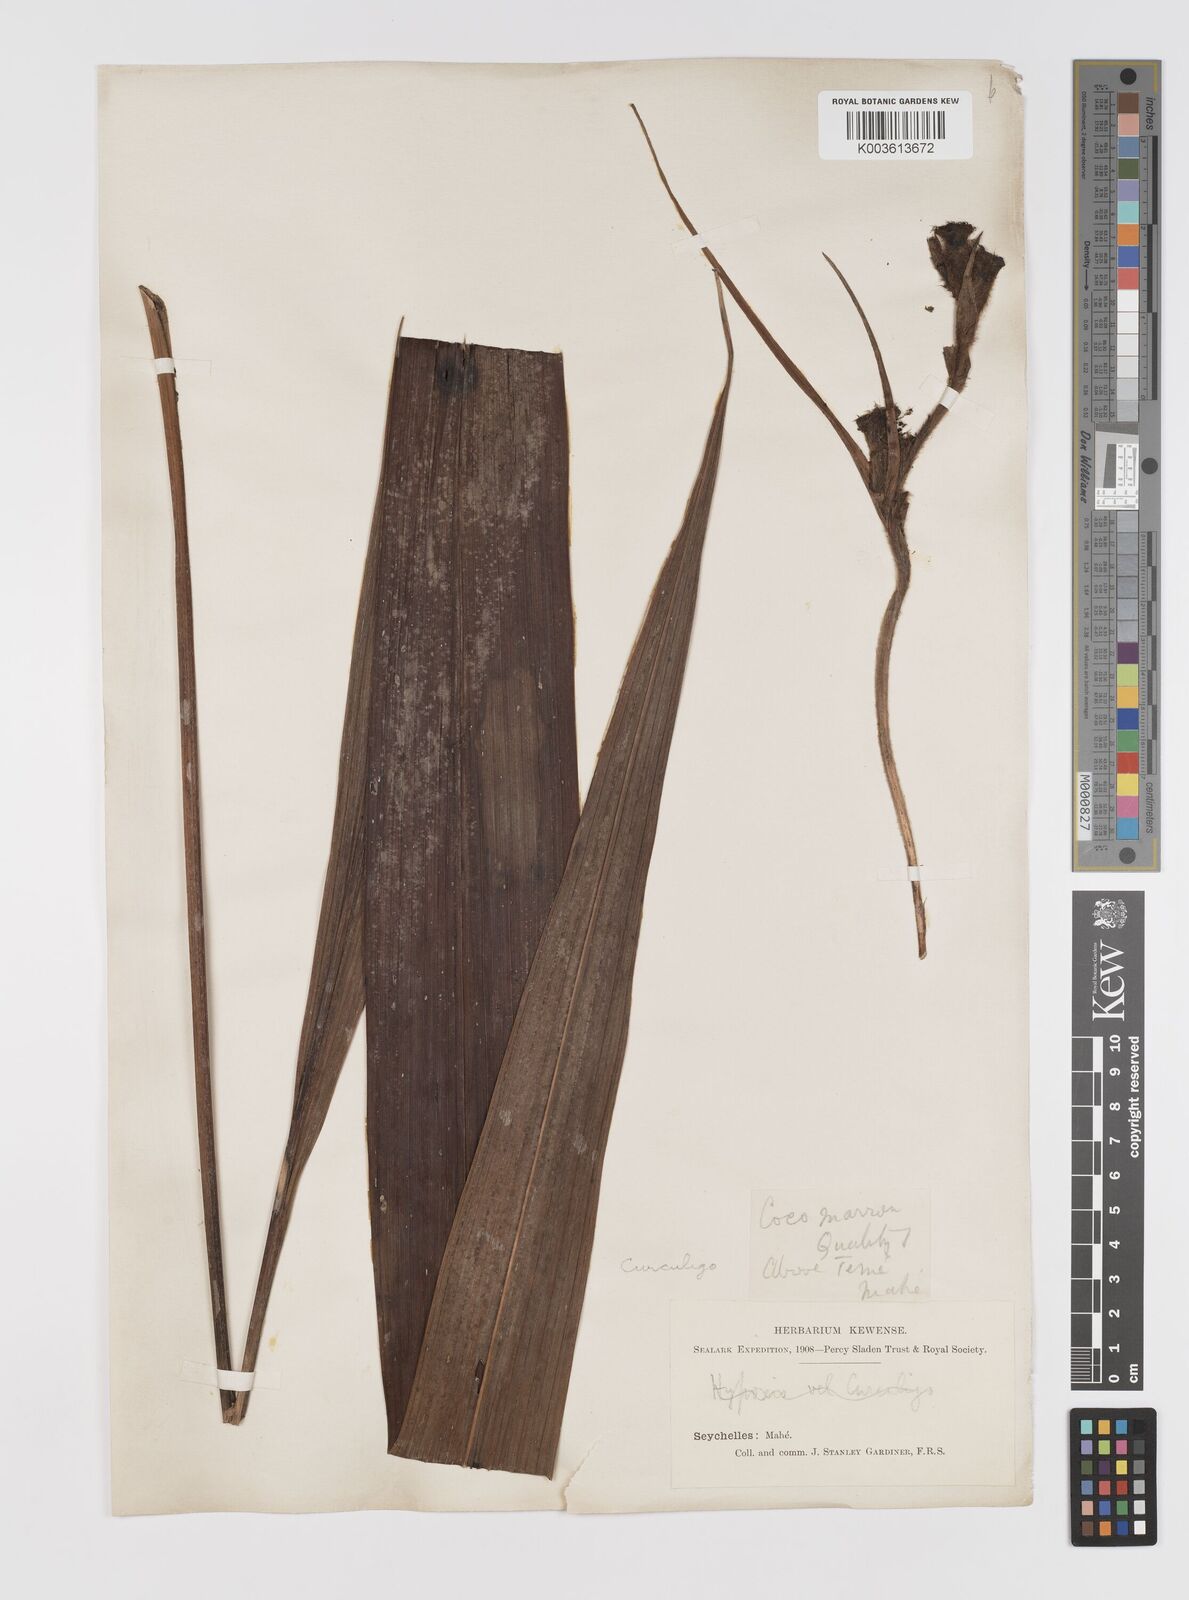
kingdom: Plantae
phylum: Tracheophyta
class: Liliopsida
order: Asparagales
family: Hypoxidaceae
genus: Curculigo
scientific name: Curculigo maheensis
